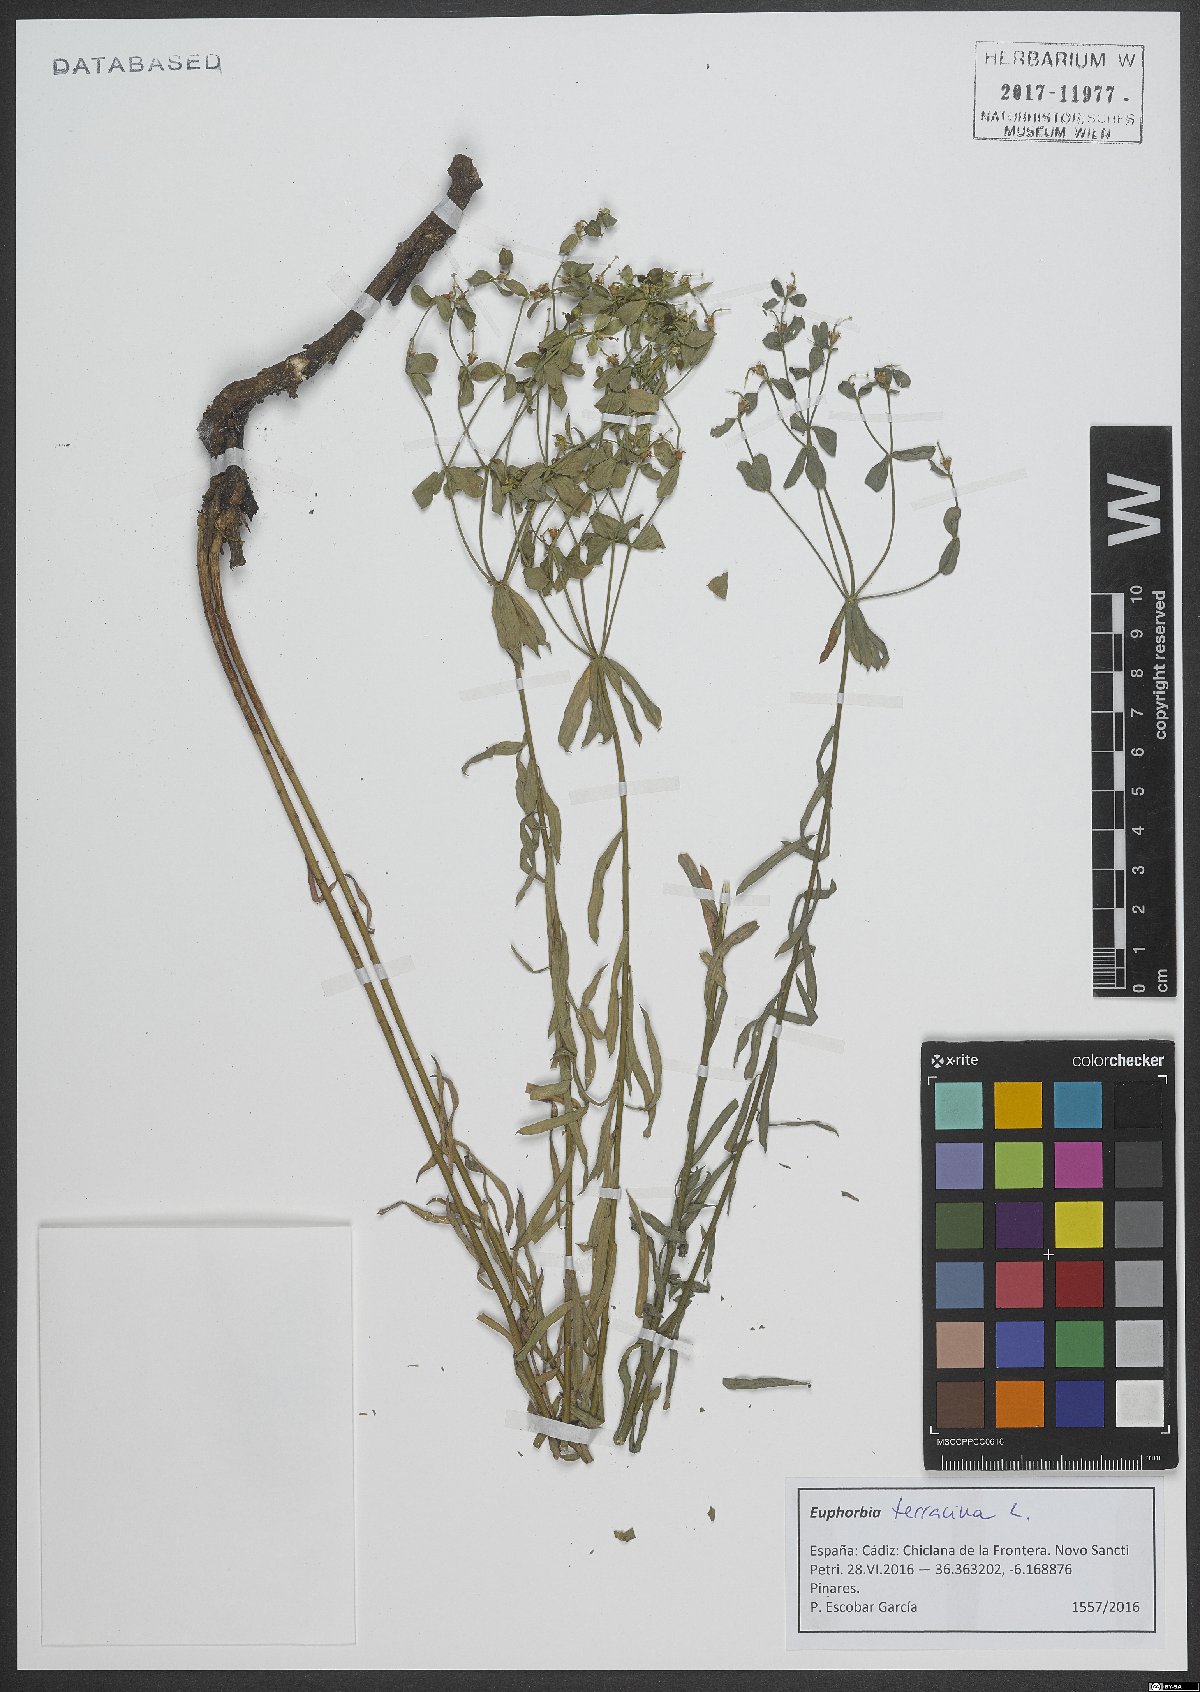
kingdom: Plantae
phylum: Tracheophyta
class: Magnoliopsida
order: Malpighiales
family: Euphorbiaceae
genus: Euphorbia
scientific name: Euphorbia terracina
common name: Geraldton carnation weed
